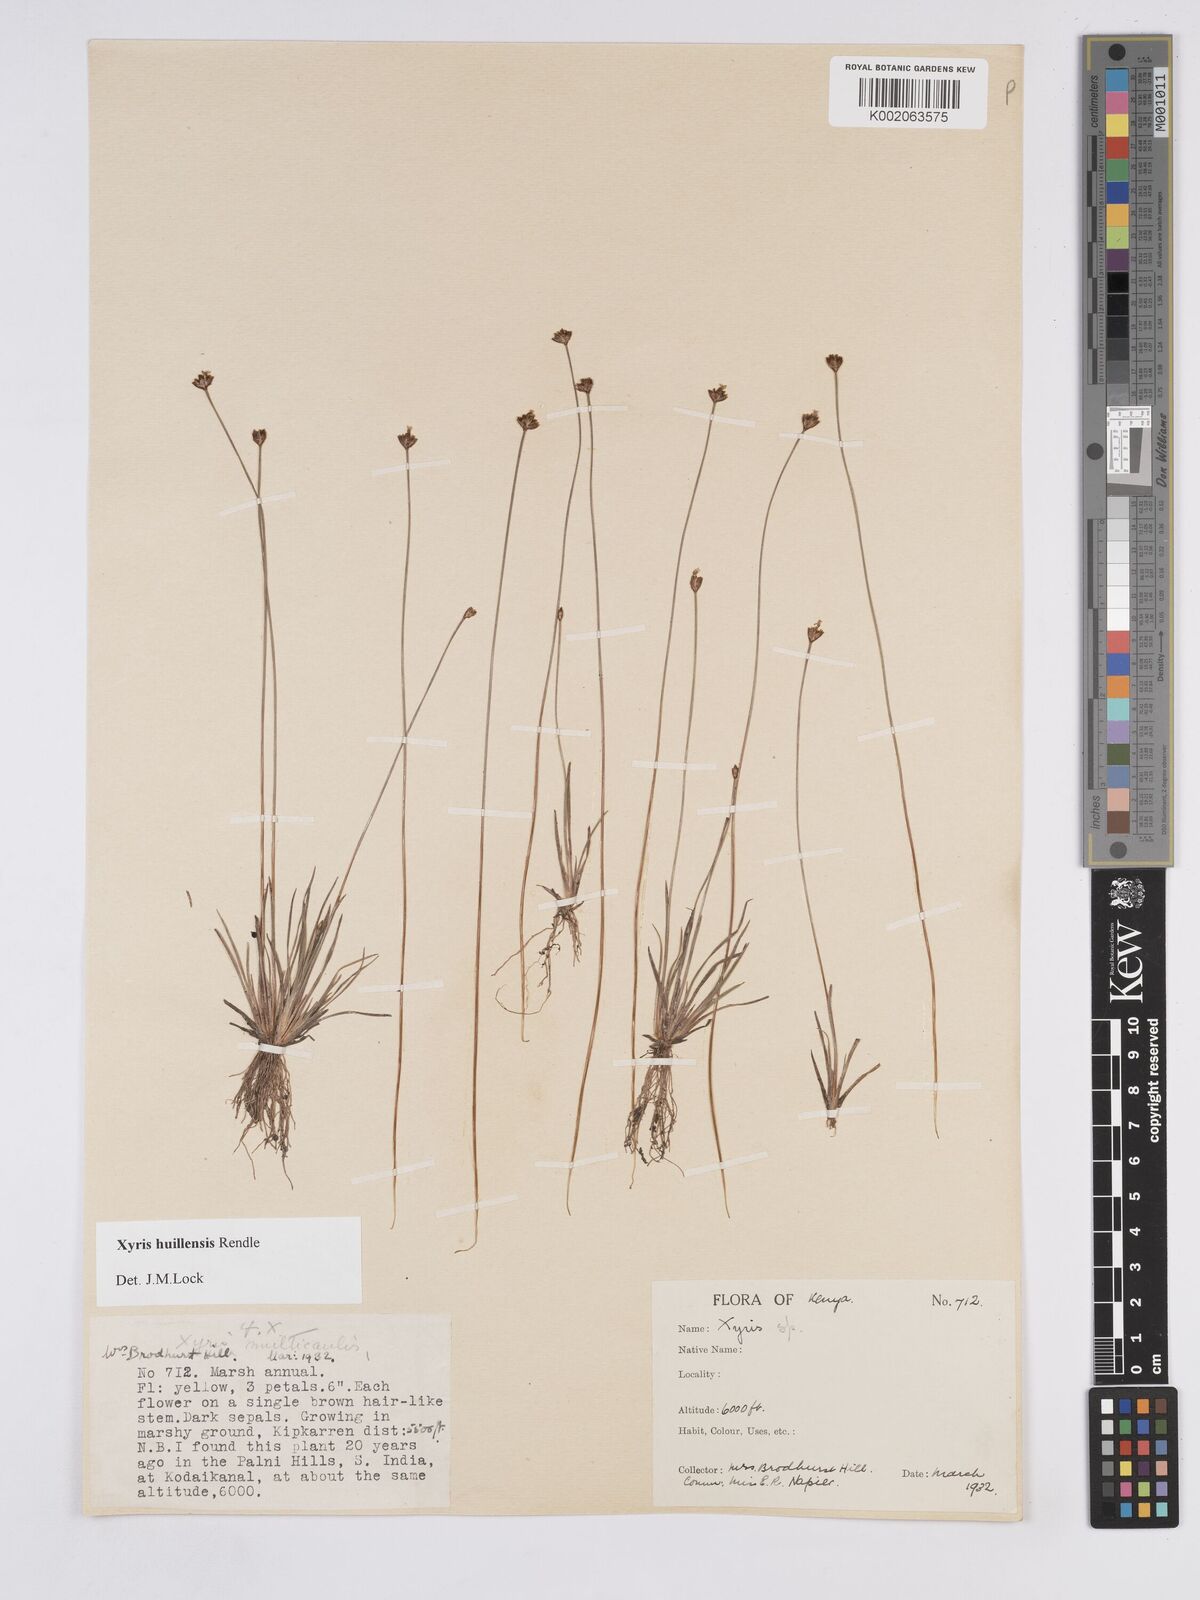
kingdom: Plantae
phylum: Tracheophyta
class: Liliopsida
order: Poales
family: Xyridaceae
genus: Xyris
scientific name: Xyris huillensis
